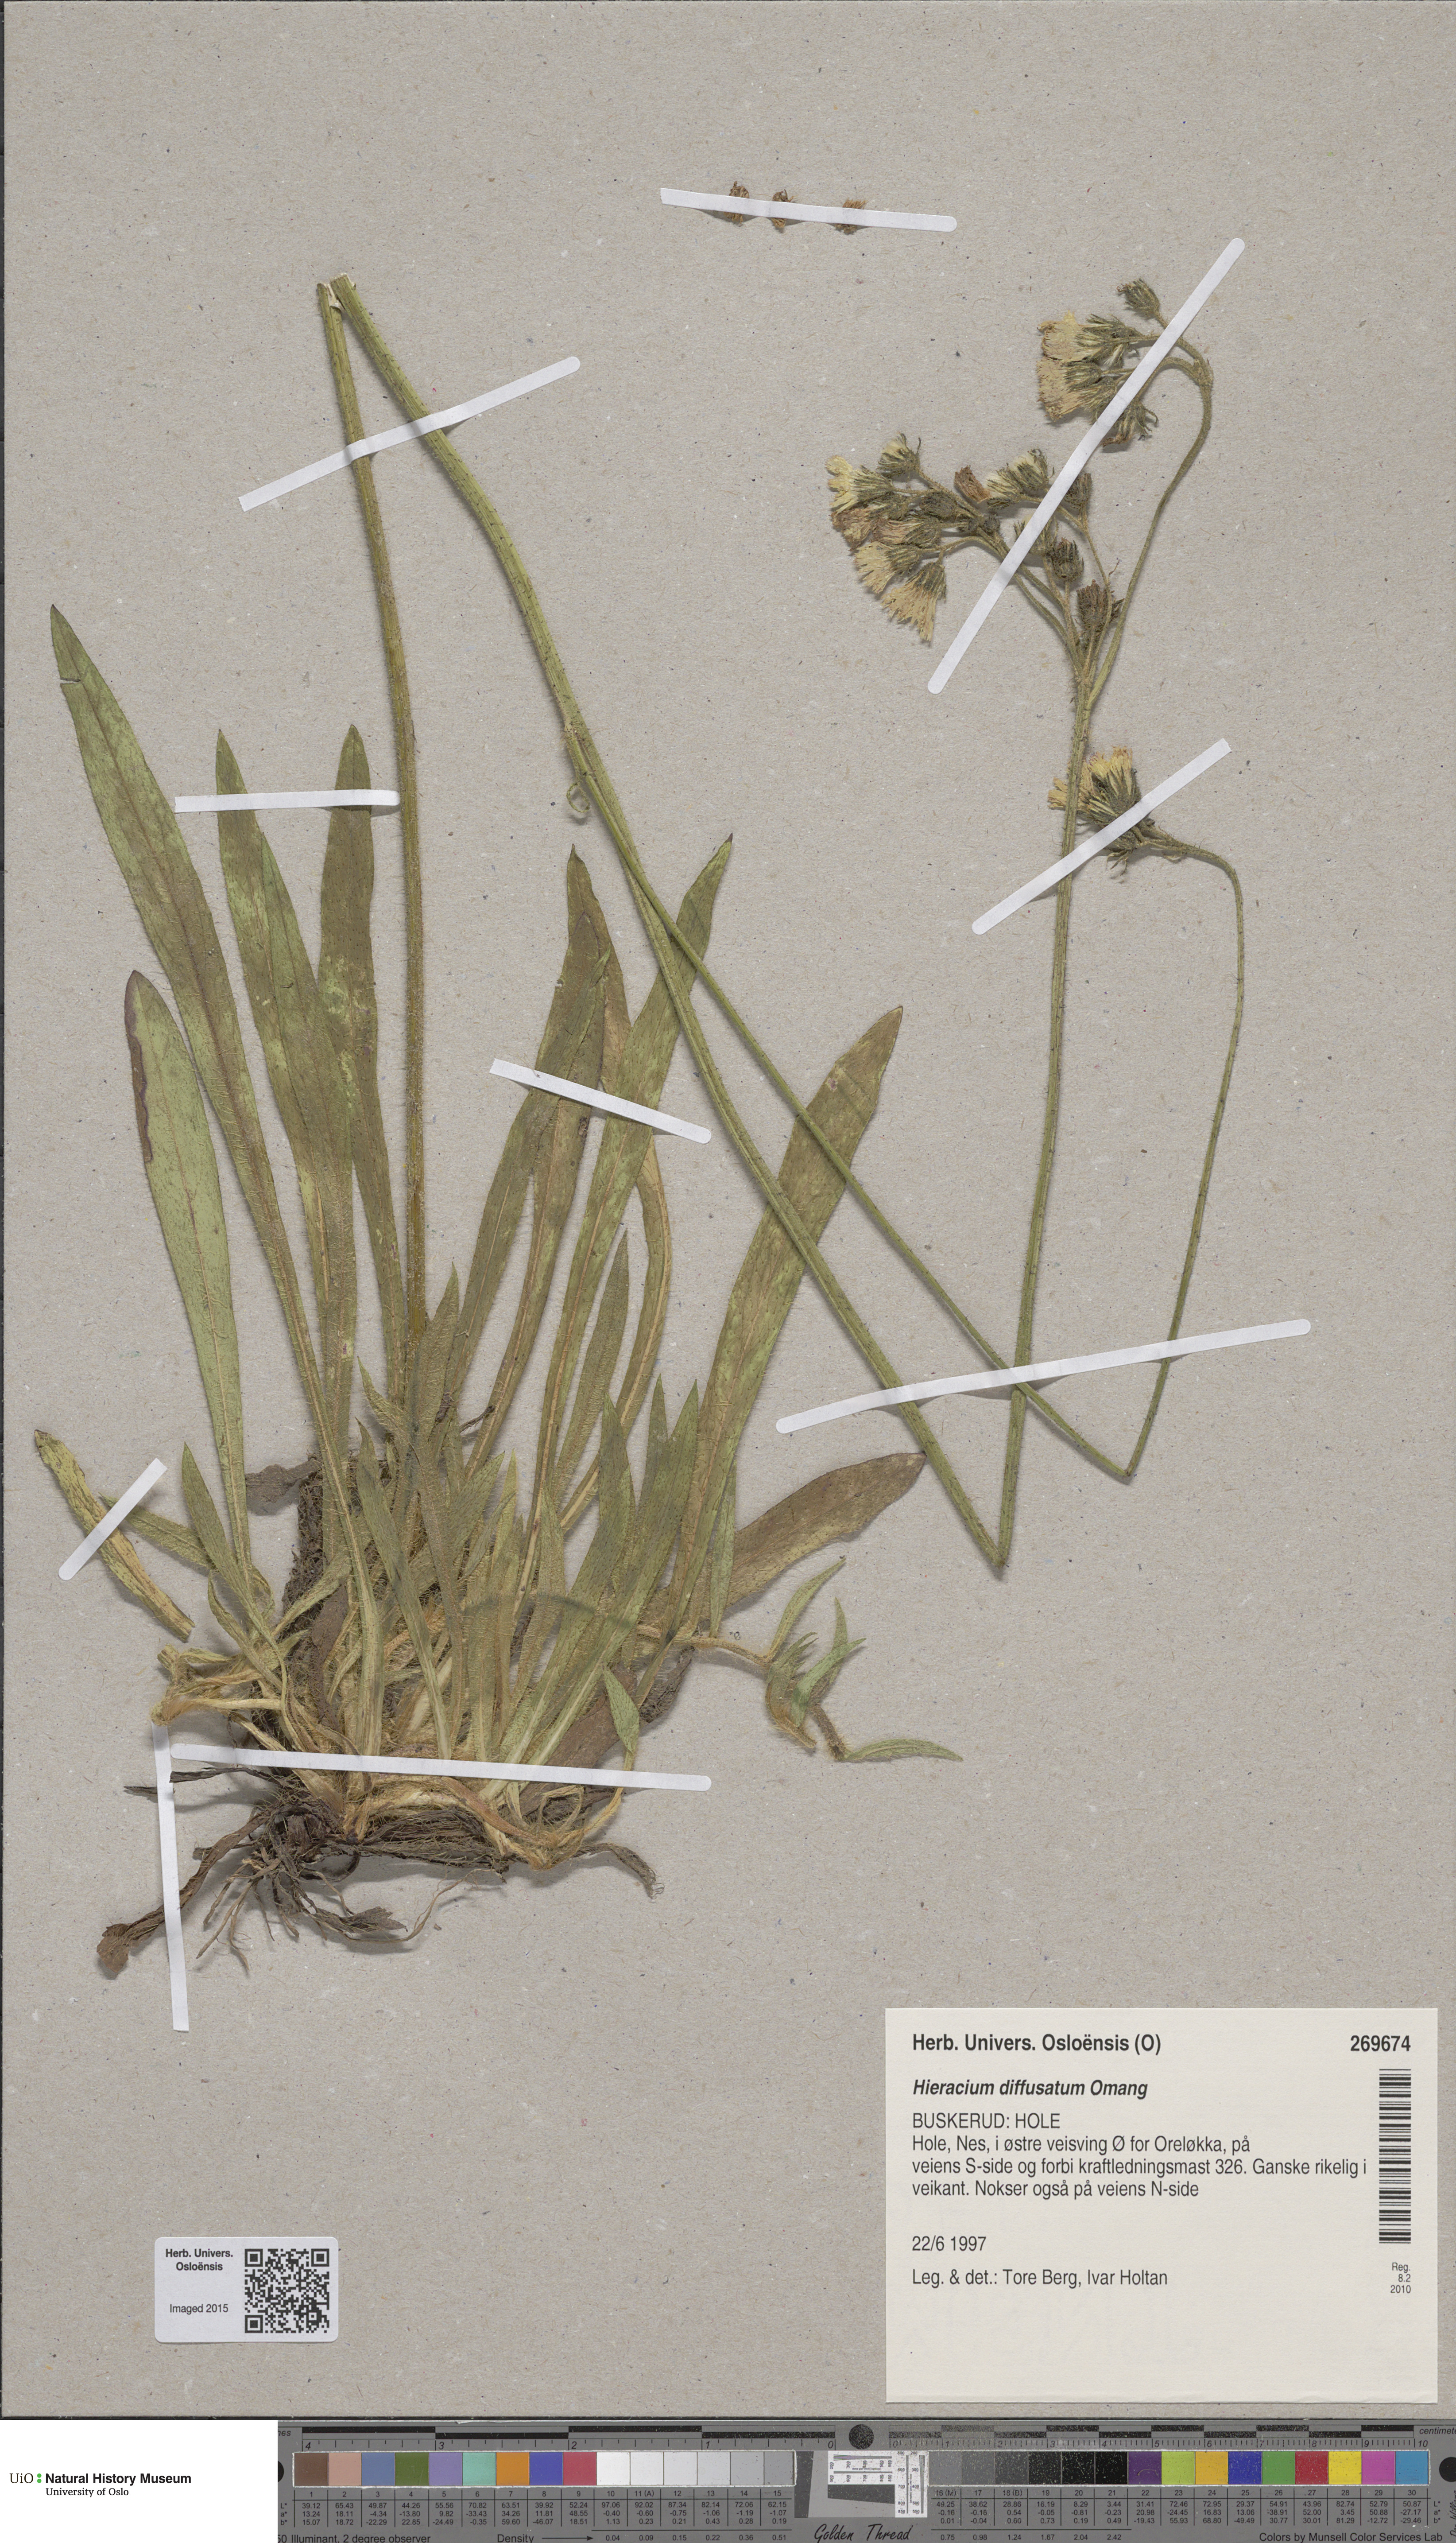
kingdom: Plantae
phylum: Tracheophyta
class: Magnoliopsida
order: Asterales
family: Asteraceae
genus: Pilosella
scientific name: Pilosella dubia
